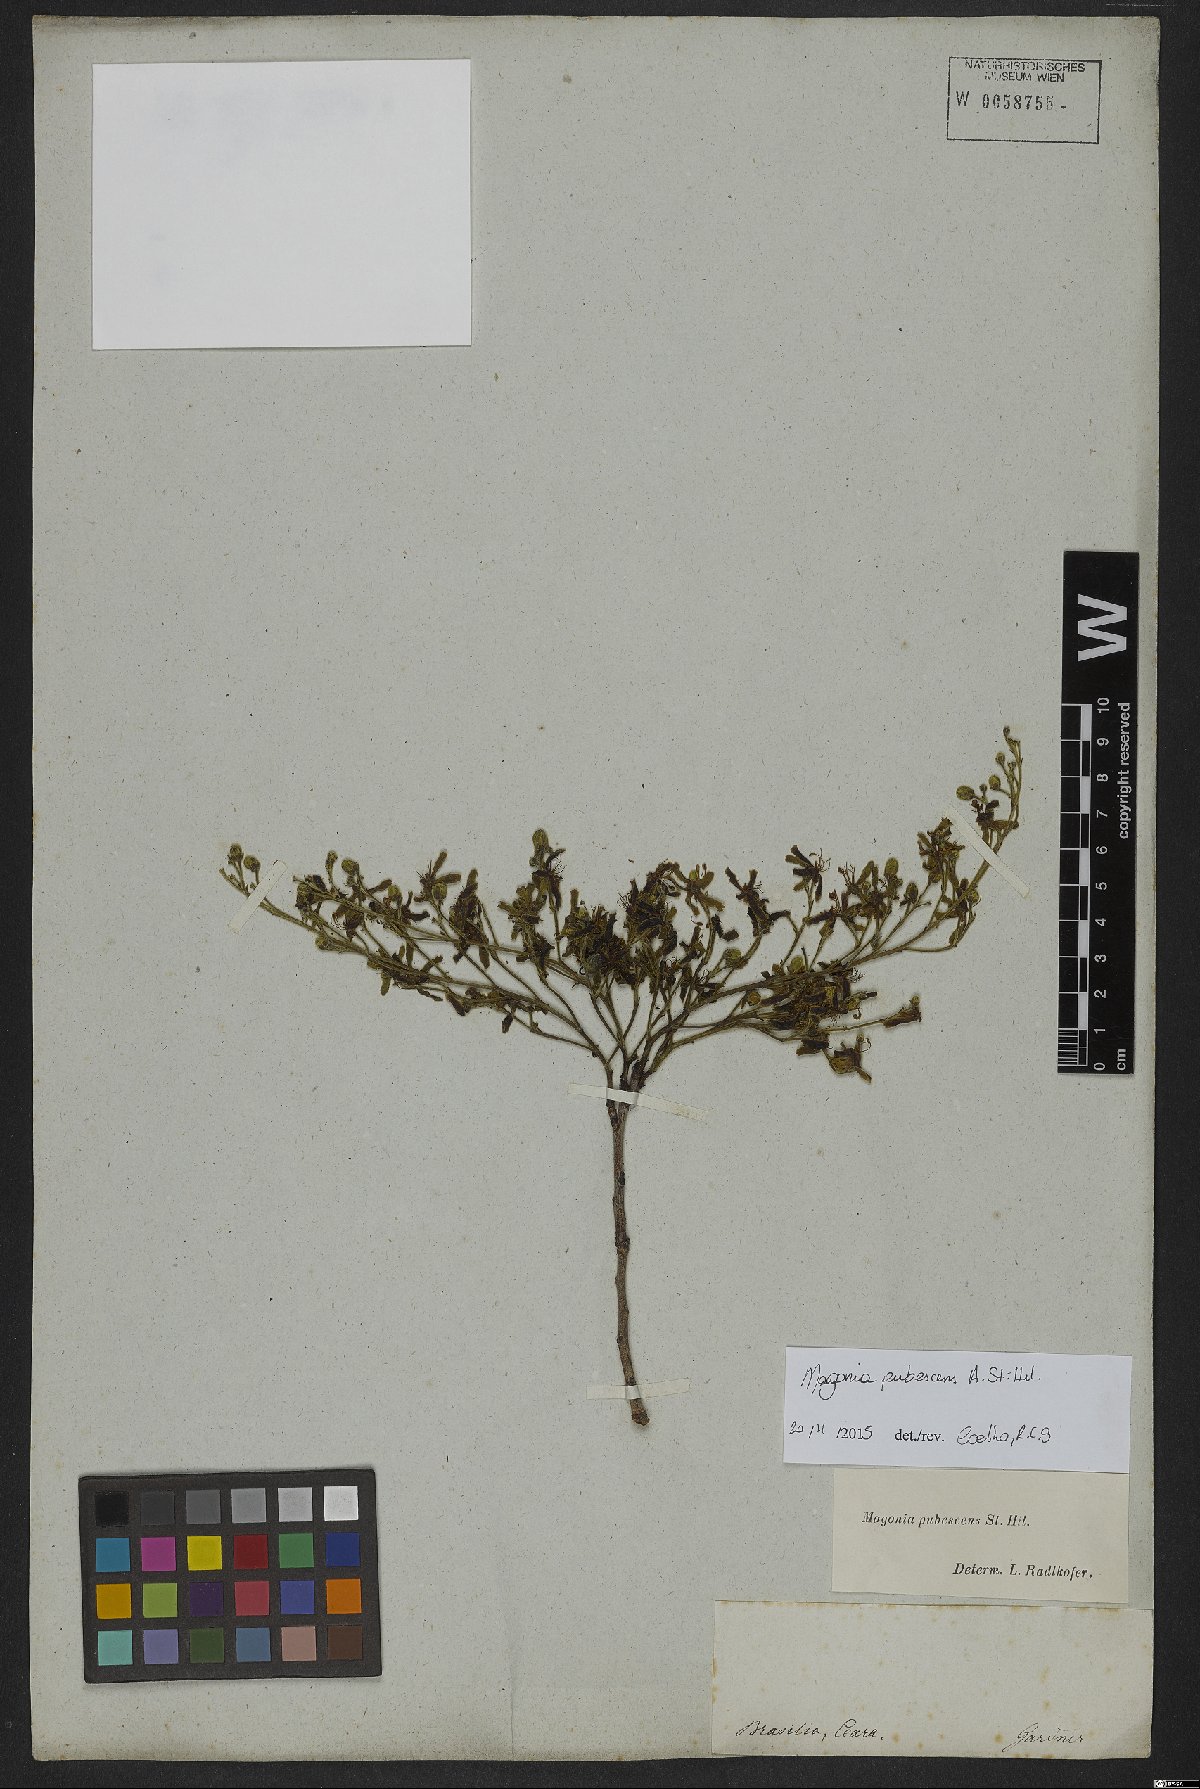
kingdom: Plantae
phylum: Tracheophyta
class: Magnoliopsida
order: Sapindales
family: Sapindaceae
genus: Magonia
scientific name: Magonia pubescens
